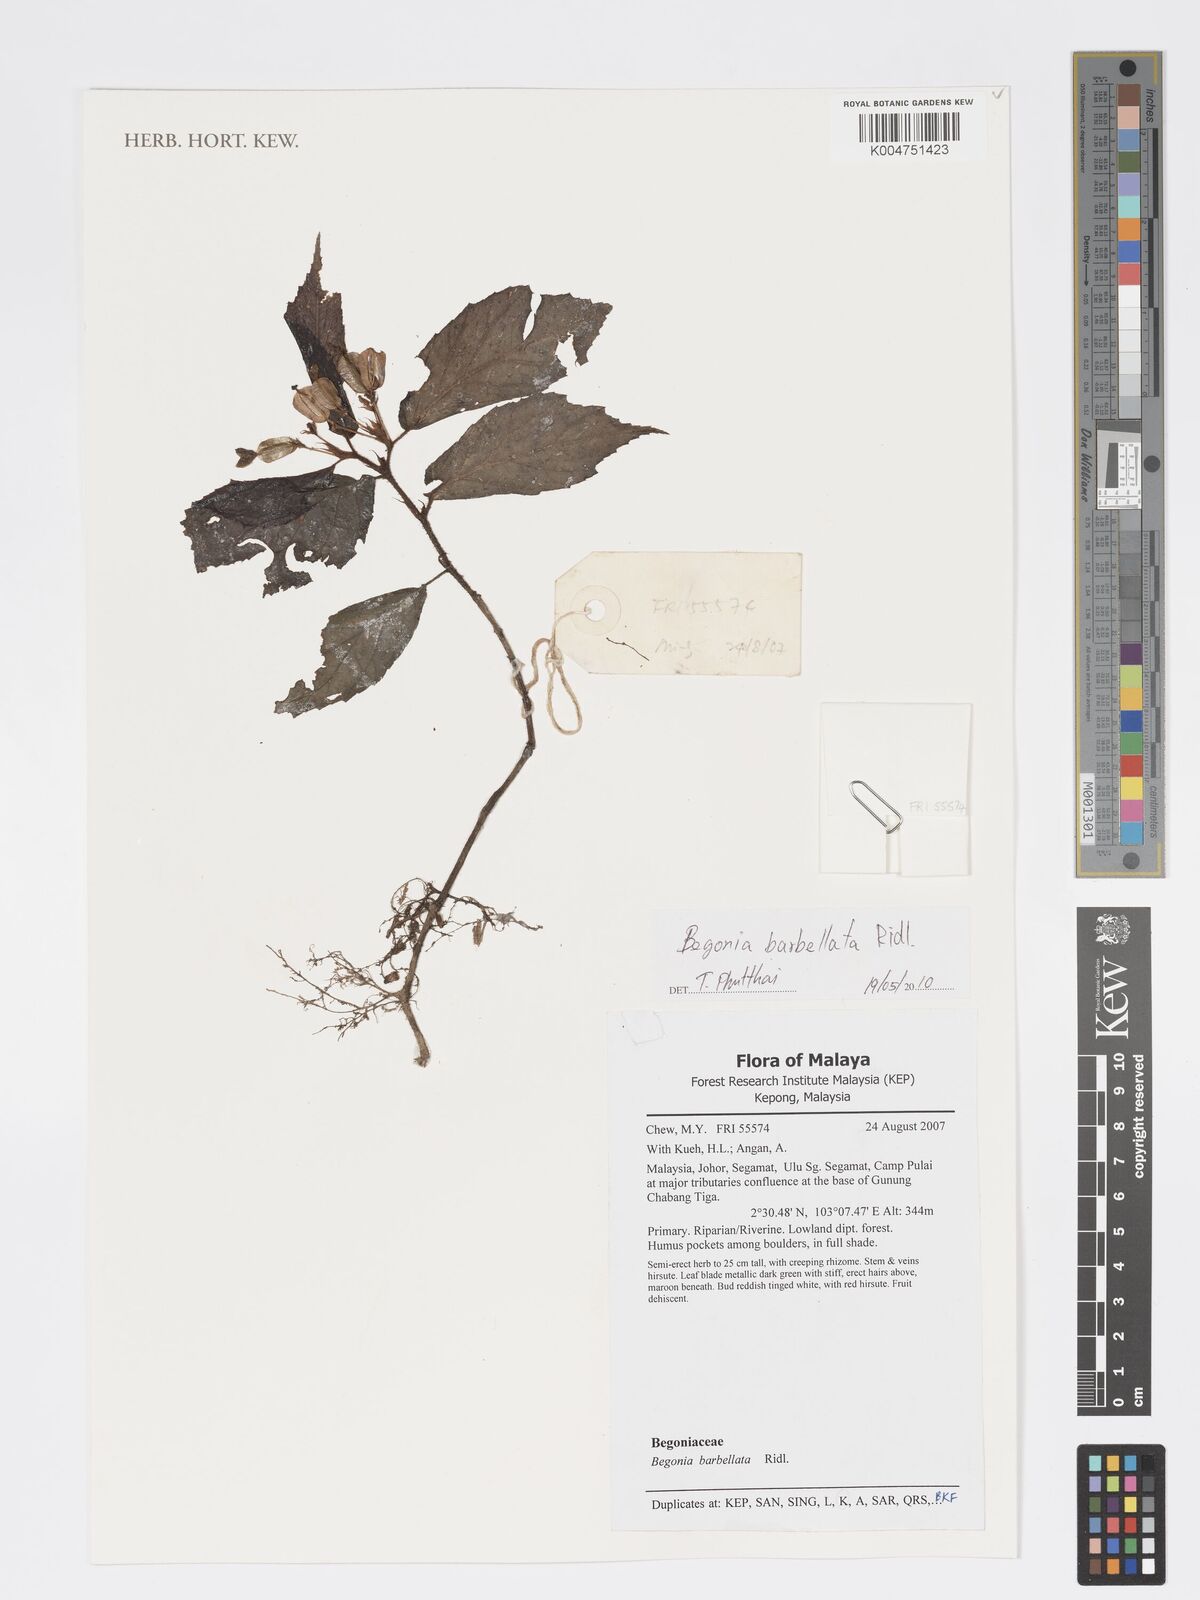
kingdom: Plantae
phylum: Tracheophyta
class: Magnoliopsida
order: Cucurbitales
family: Begoniaceae
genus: Begonia
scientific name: Begonia barbellata
